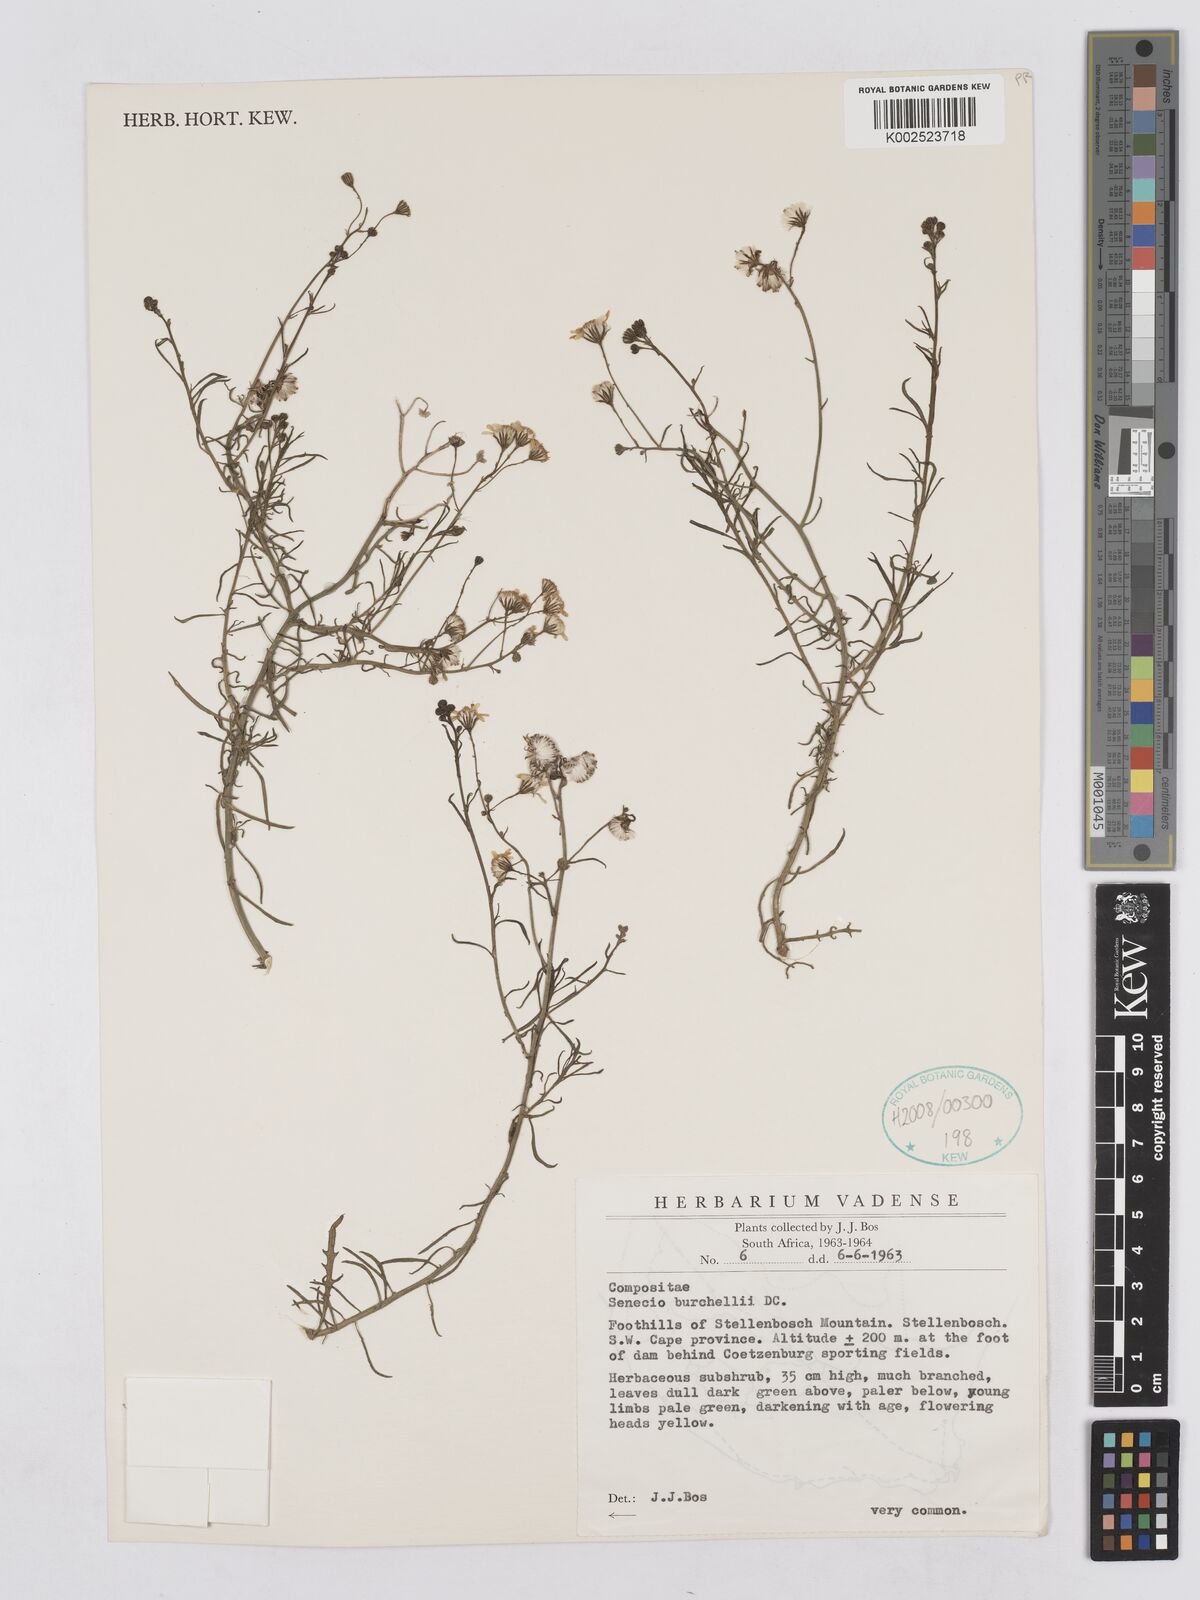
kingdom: Plantae
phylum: Tracheophyta
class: Magnoliopsida
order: Asterales
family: Asteraceae
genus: Senecio
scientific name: Senecio burchellii
